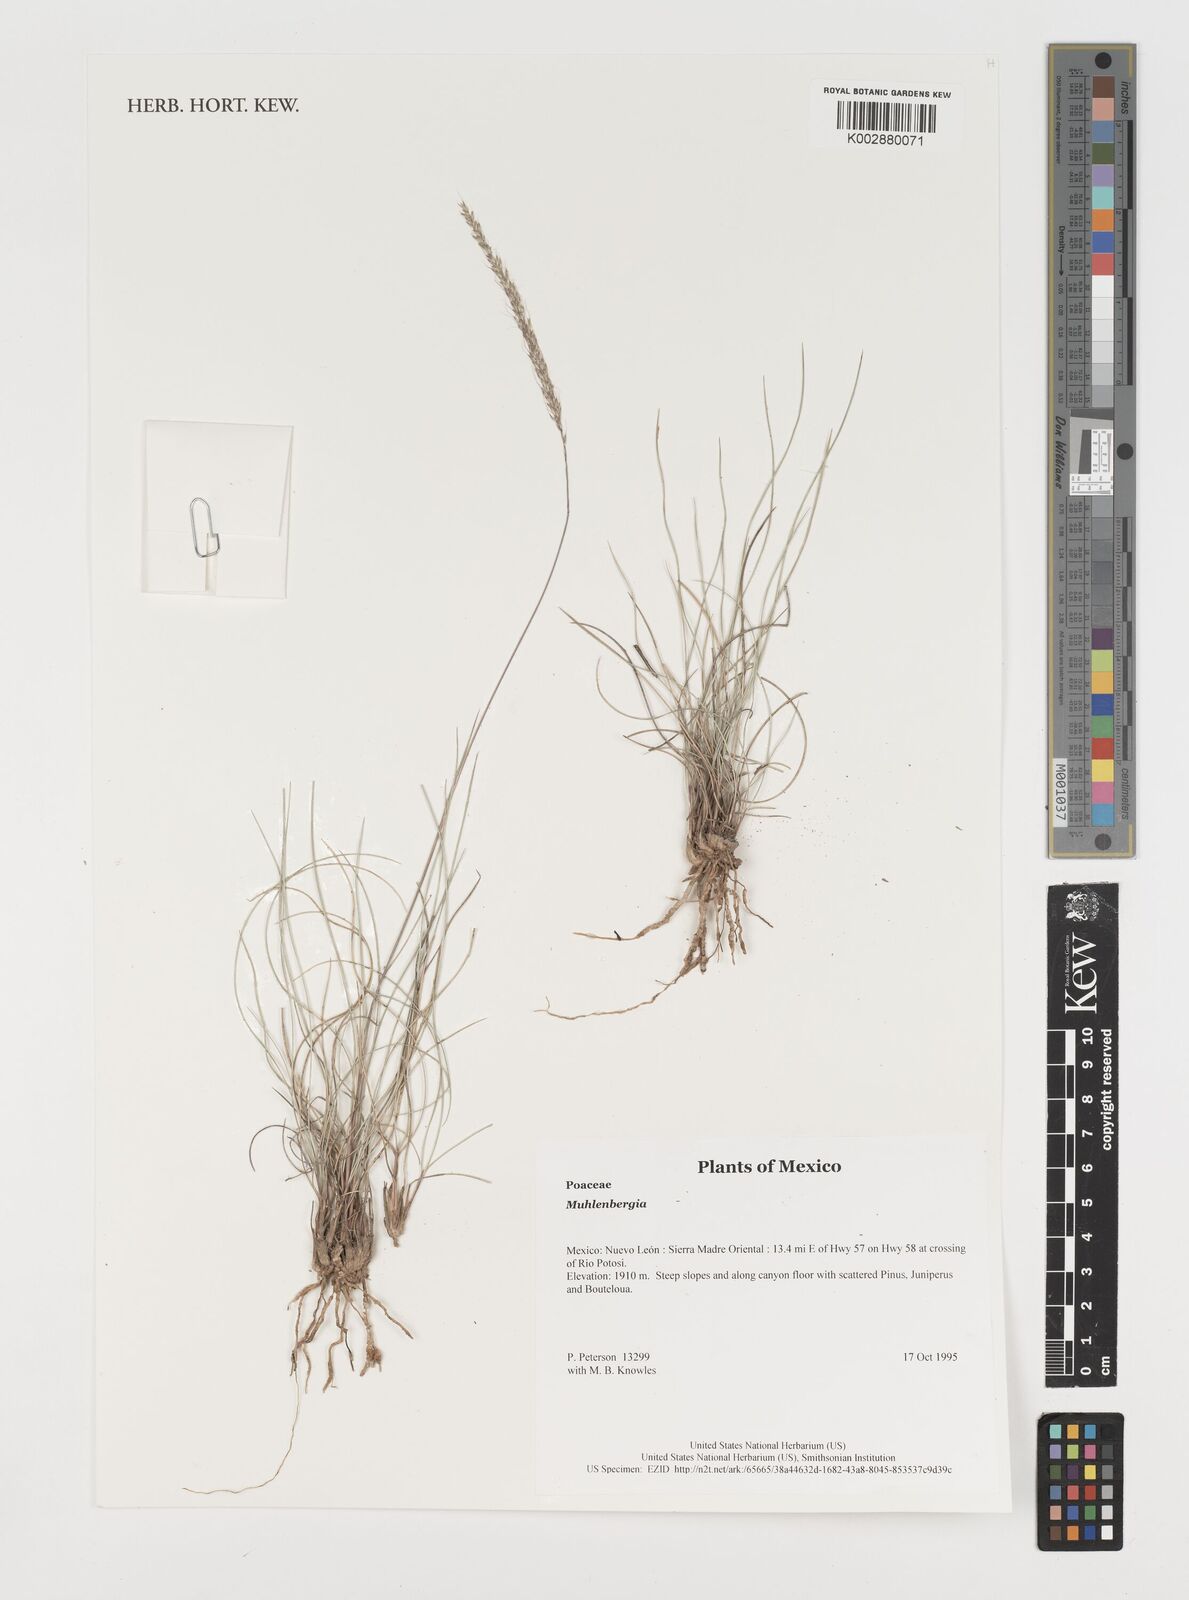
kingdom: Plantae
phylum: Tracheophyta
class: Liliopsida
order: Poales
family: Poaceae
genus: Muhlenbergia
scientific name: Muhlenbergia
